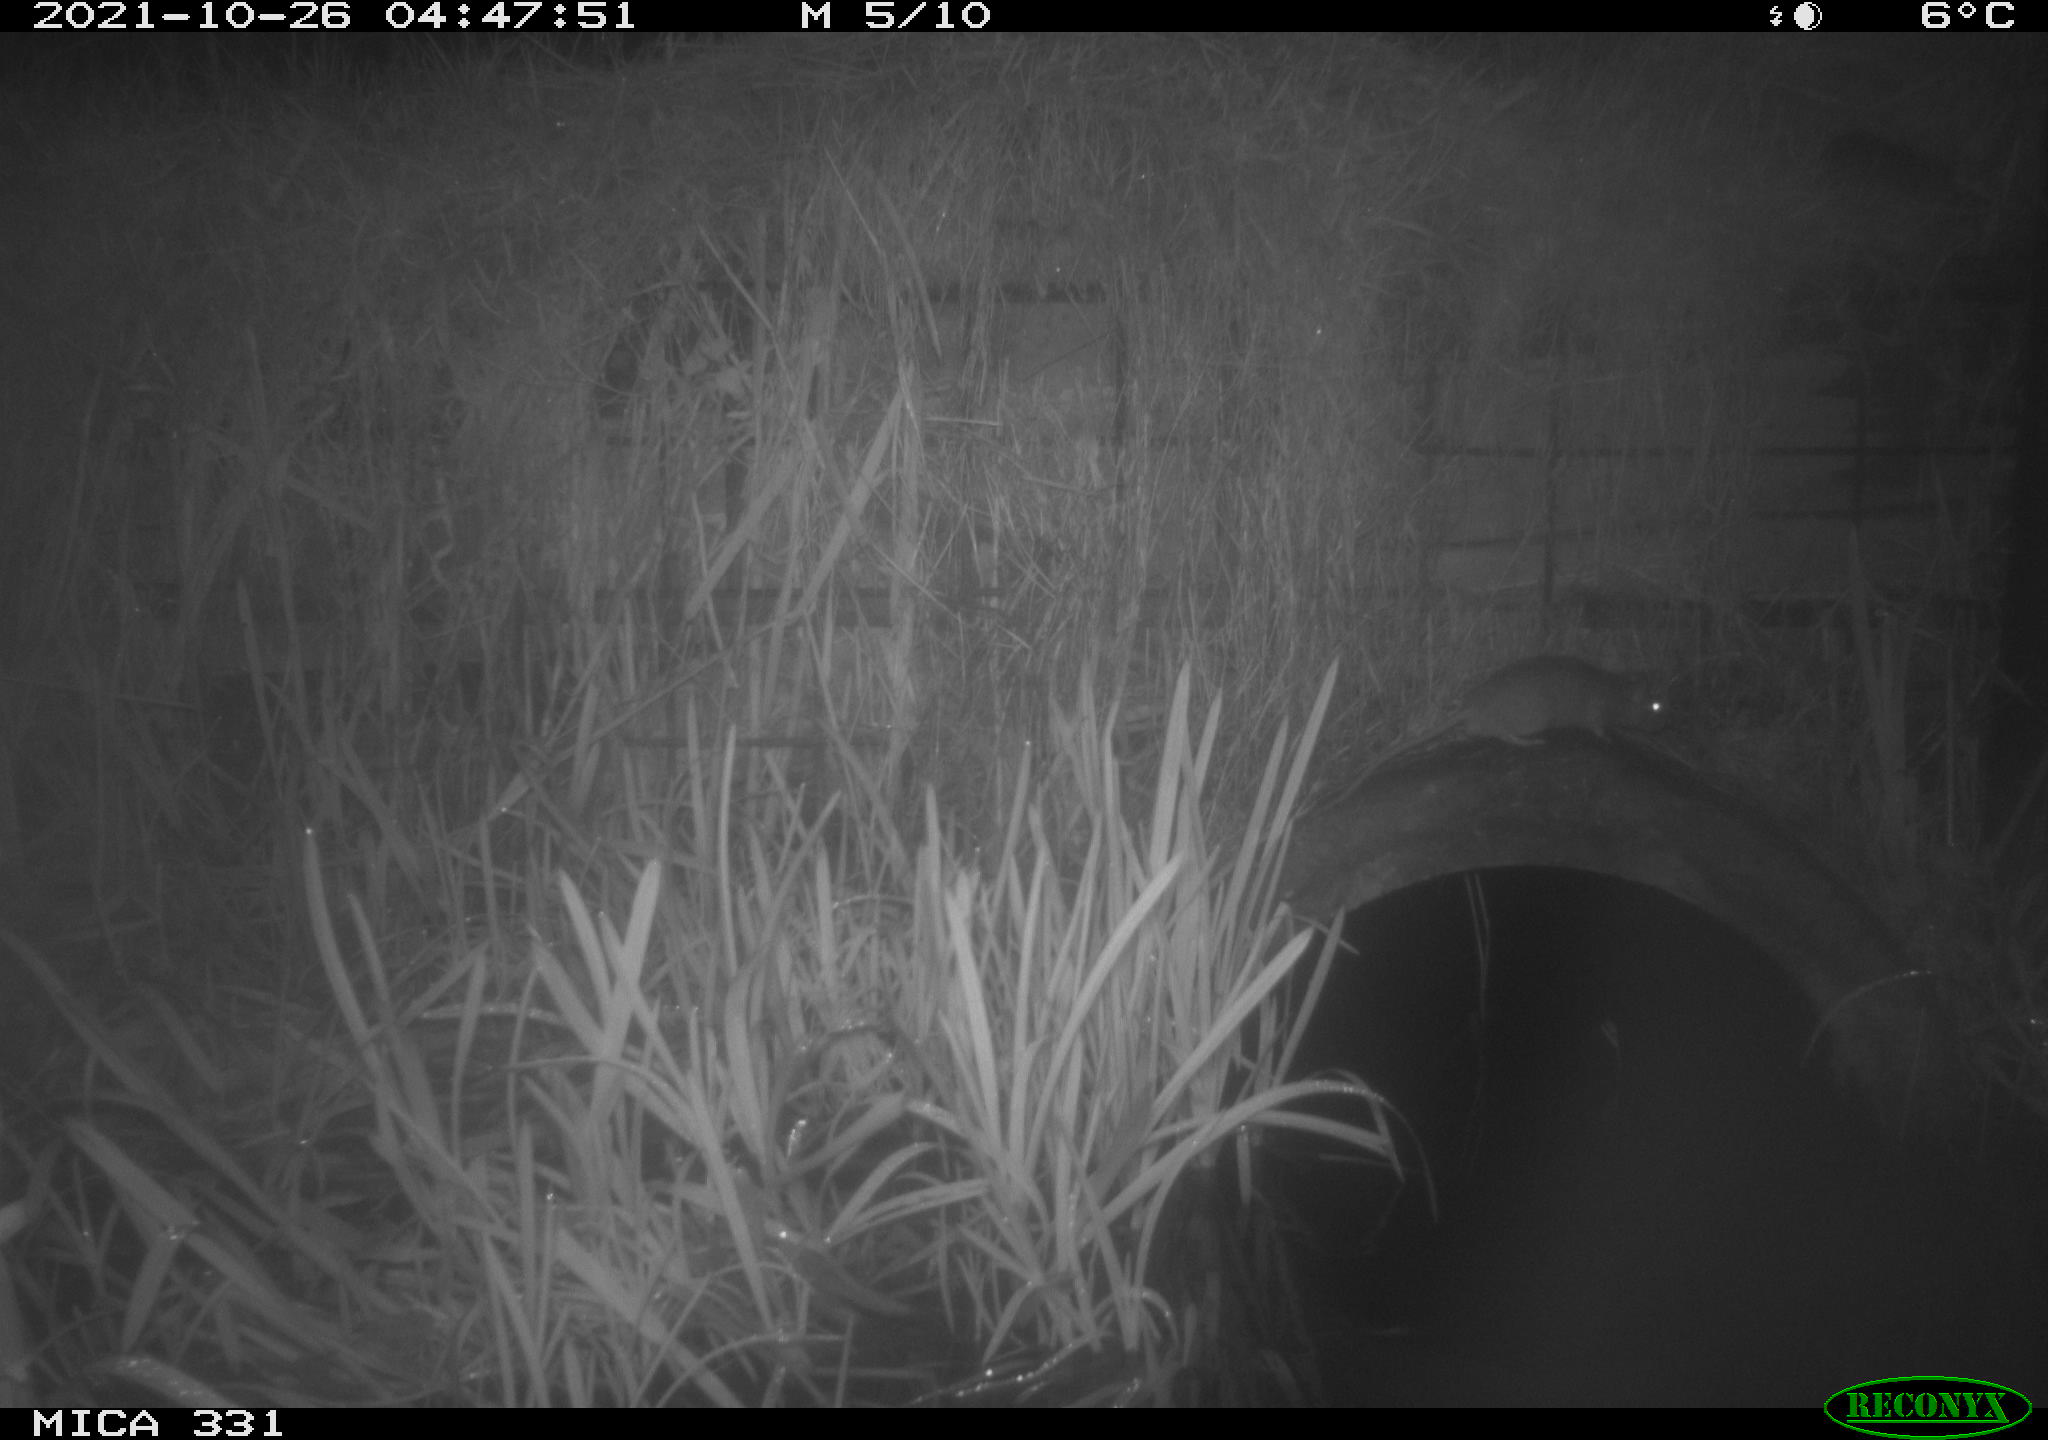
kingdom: Animalia
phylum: Chordata
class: Mammalia
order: Rodentia
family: Muridae
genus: Rattus
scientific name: Rattus norvegicus
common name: Brown rat
